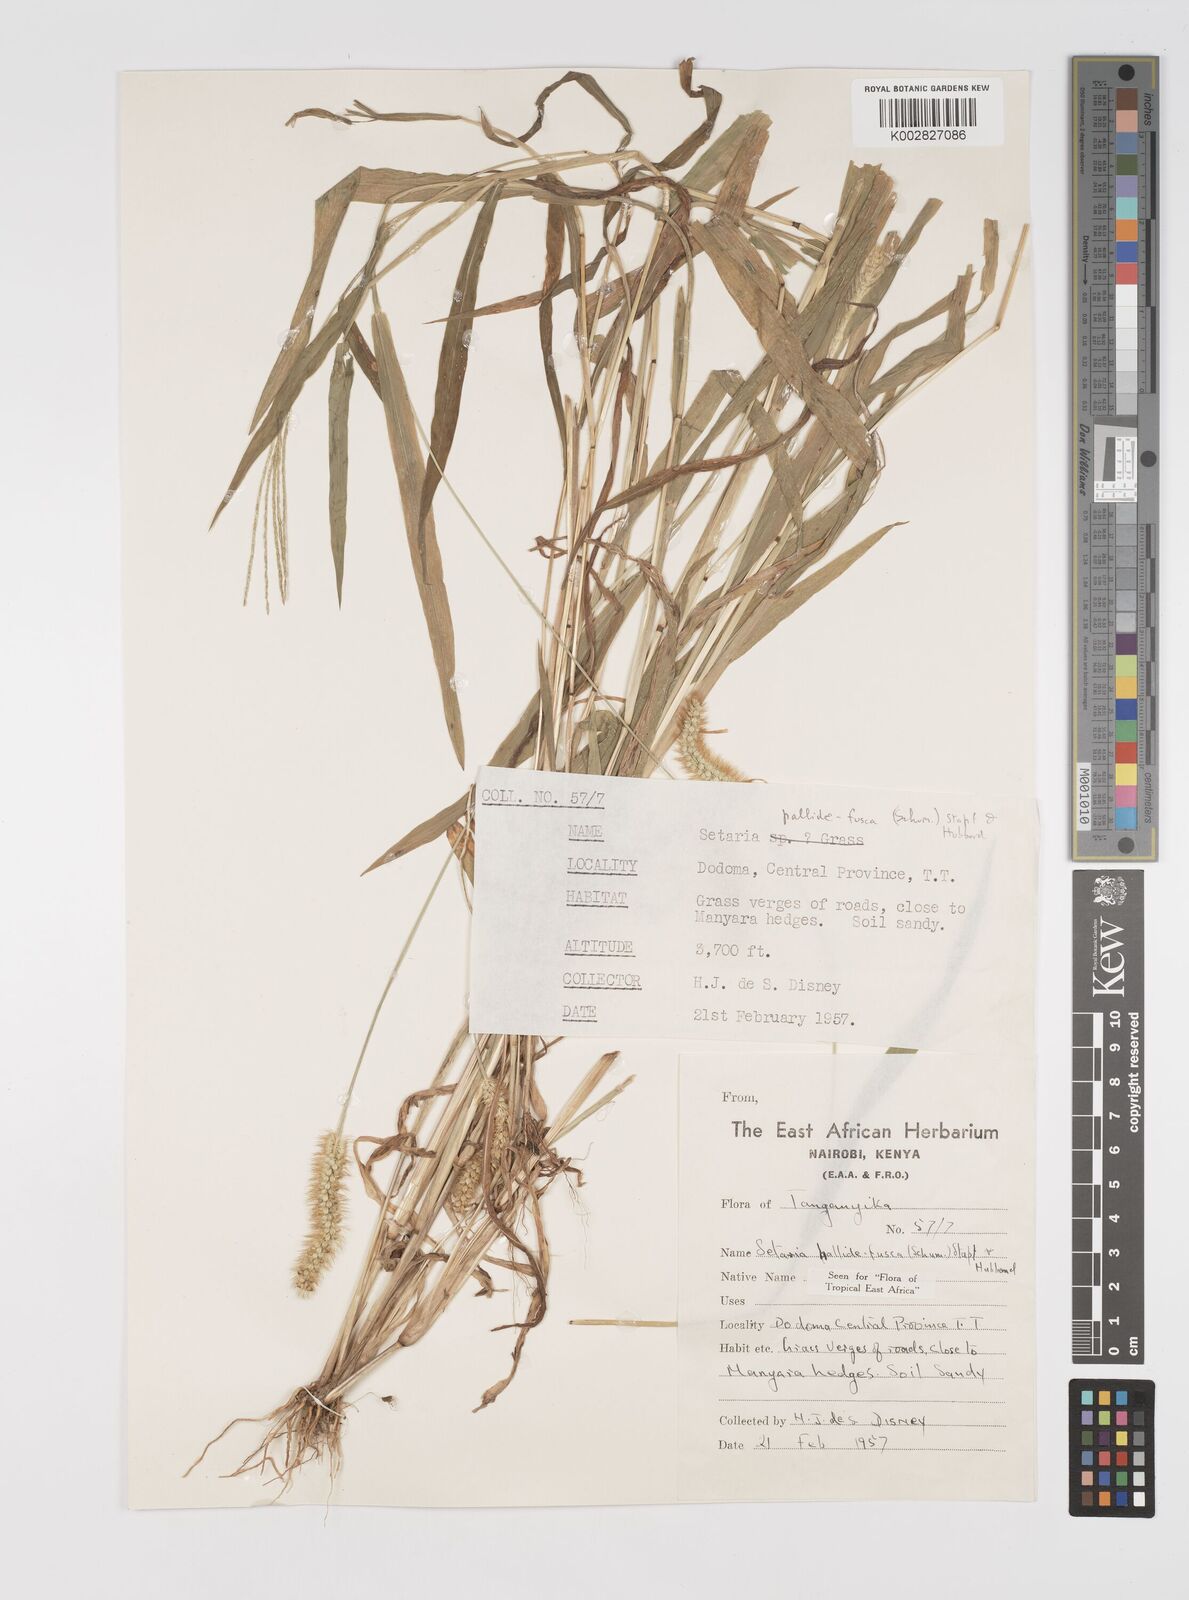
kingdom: Plantae
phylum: Tracheophyta
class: Liliopsida
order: Poales
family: Poaceae
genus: Setaria
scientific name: Setaria pumila
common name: Yellow bristle-grass
